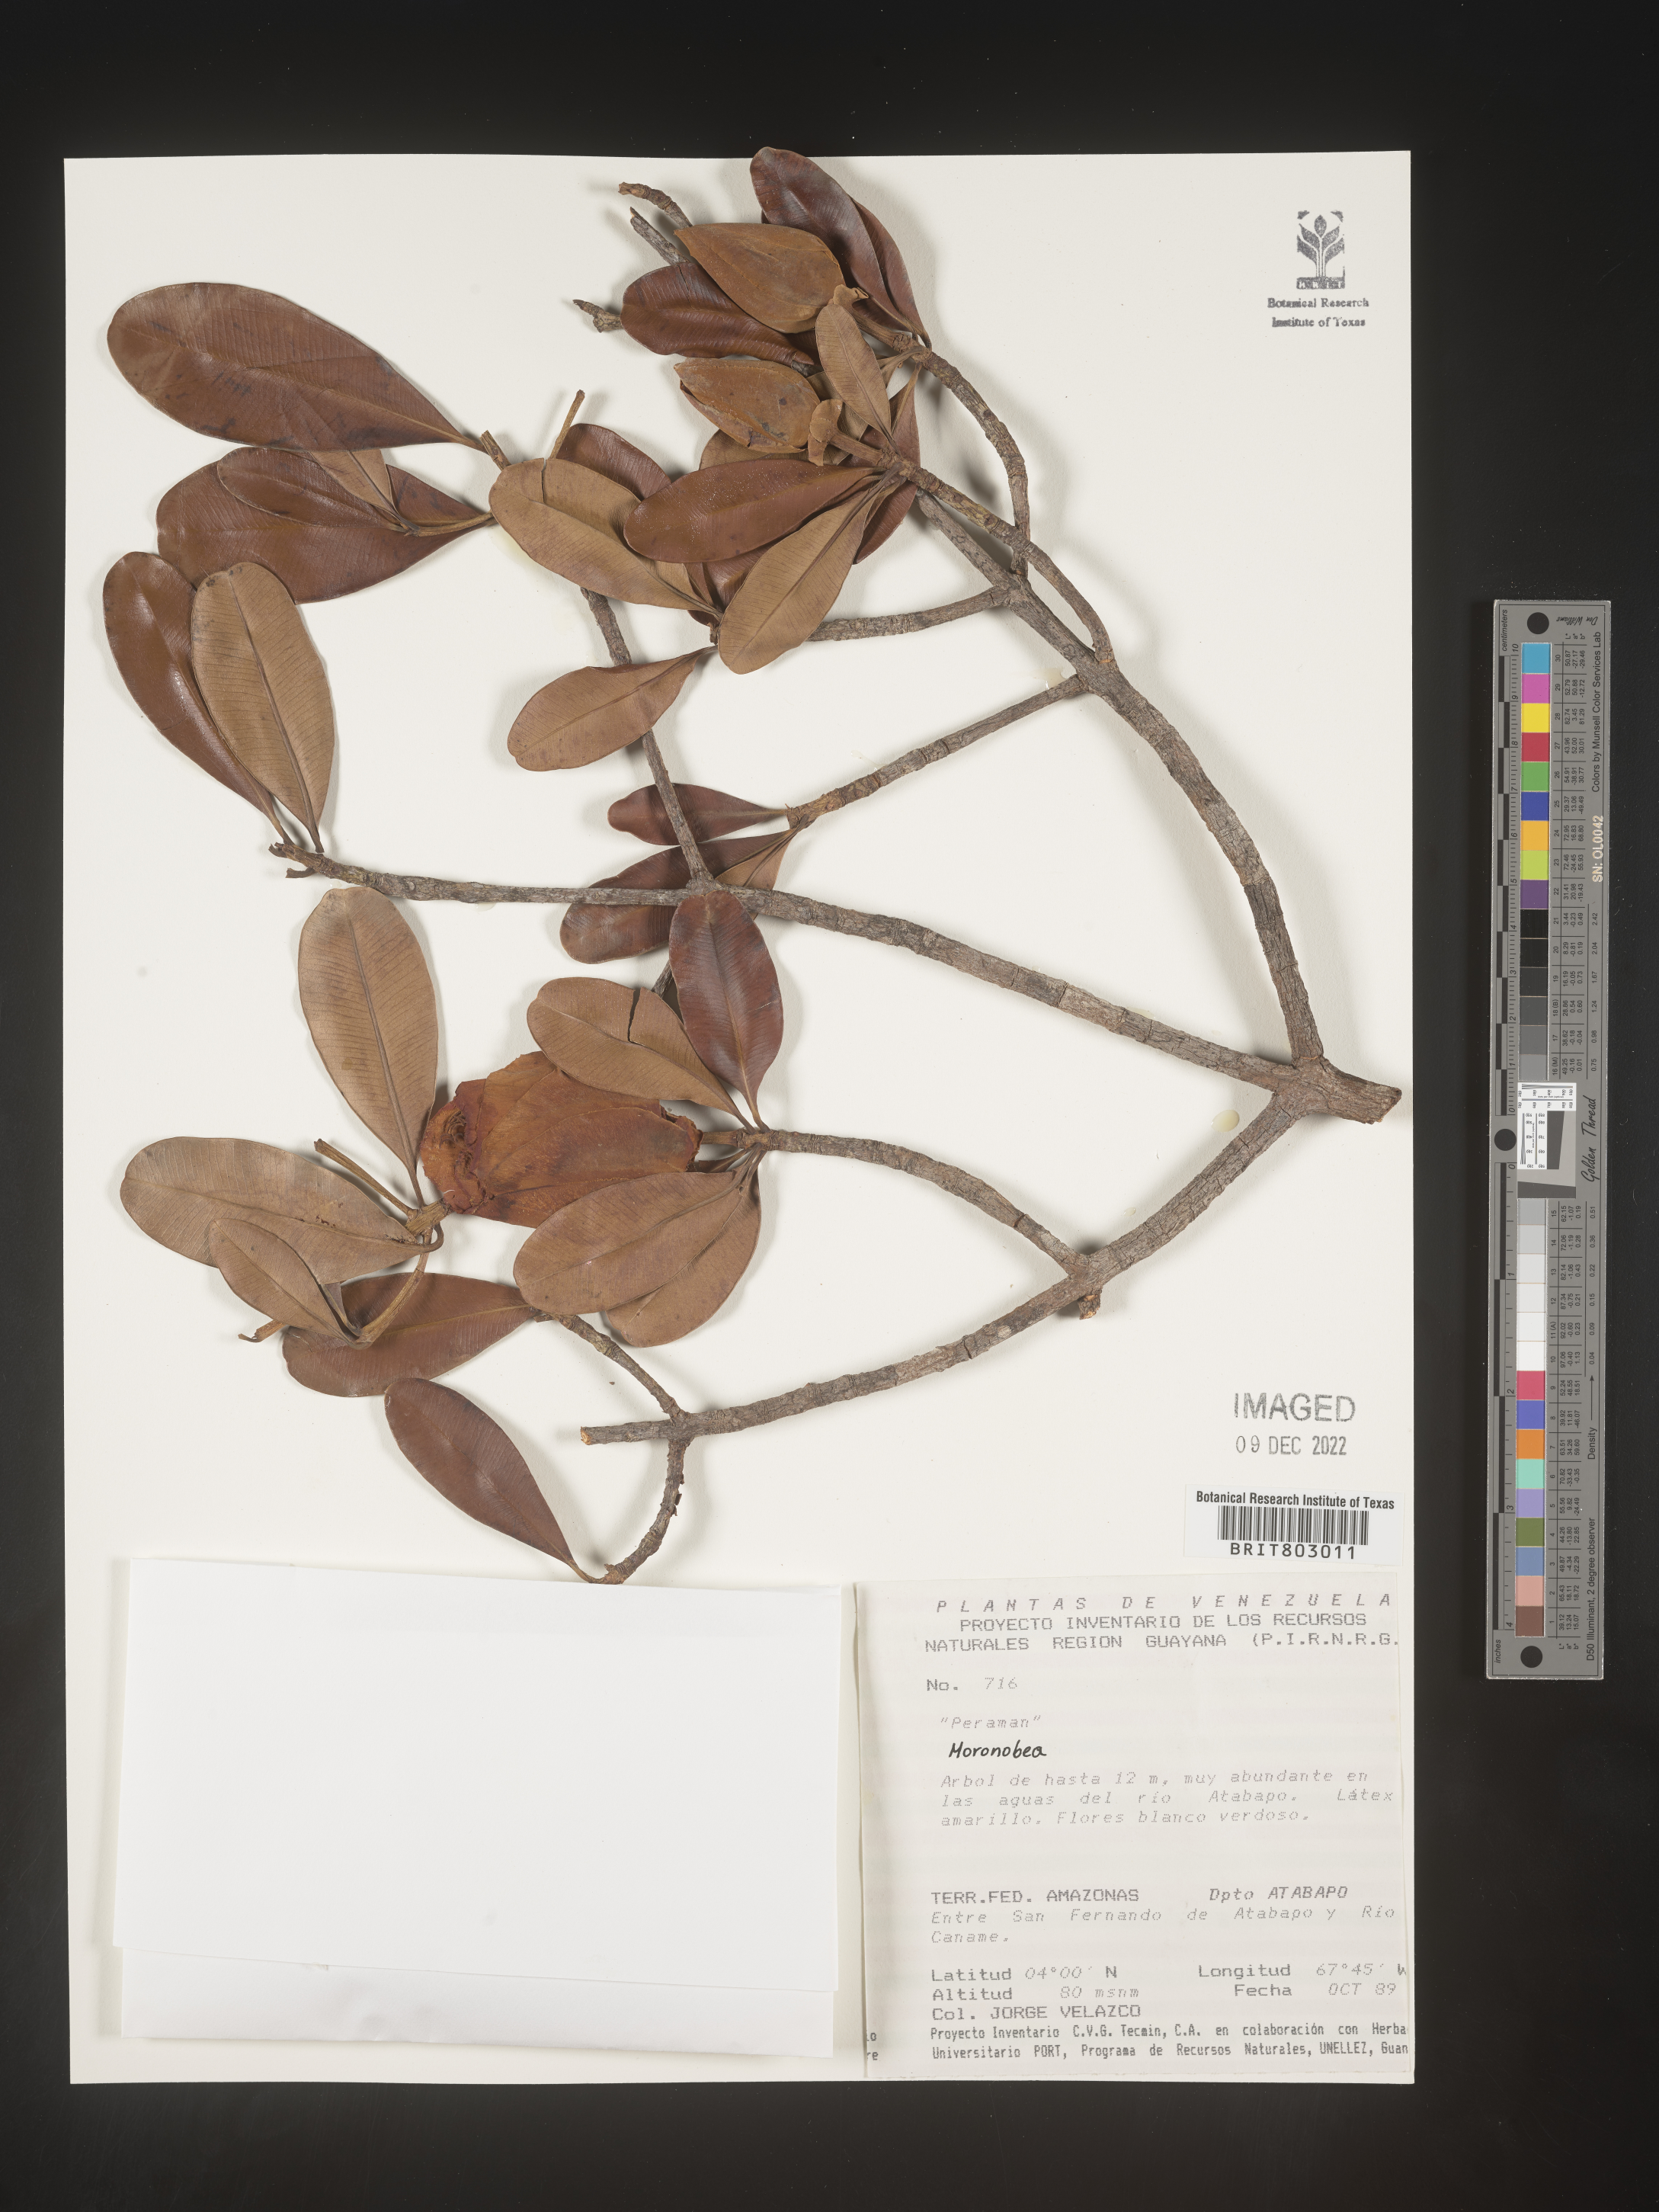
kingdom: Plantae
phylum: Tracheophyta
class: Magnoliopsida
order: Malpighiales
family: Clusiaceae
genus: Moronobea
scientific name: Moronobea
